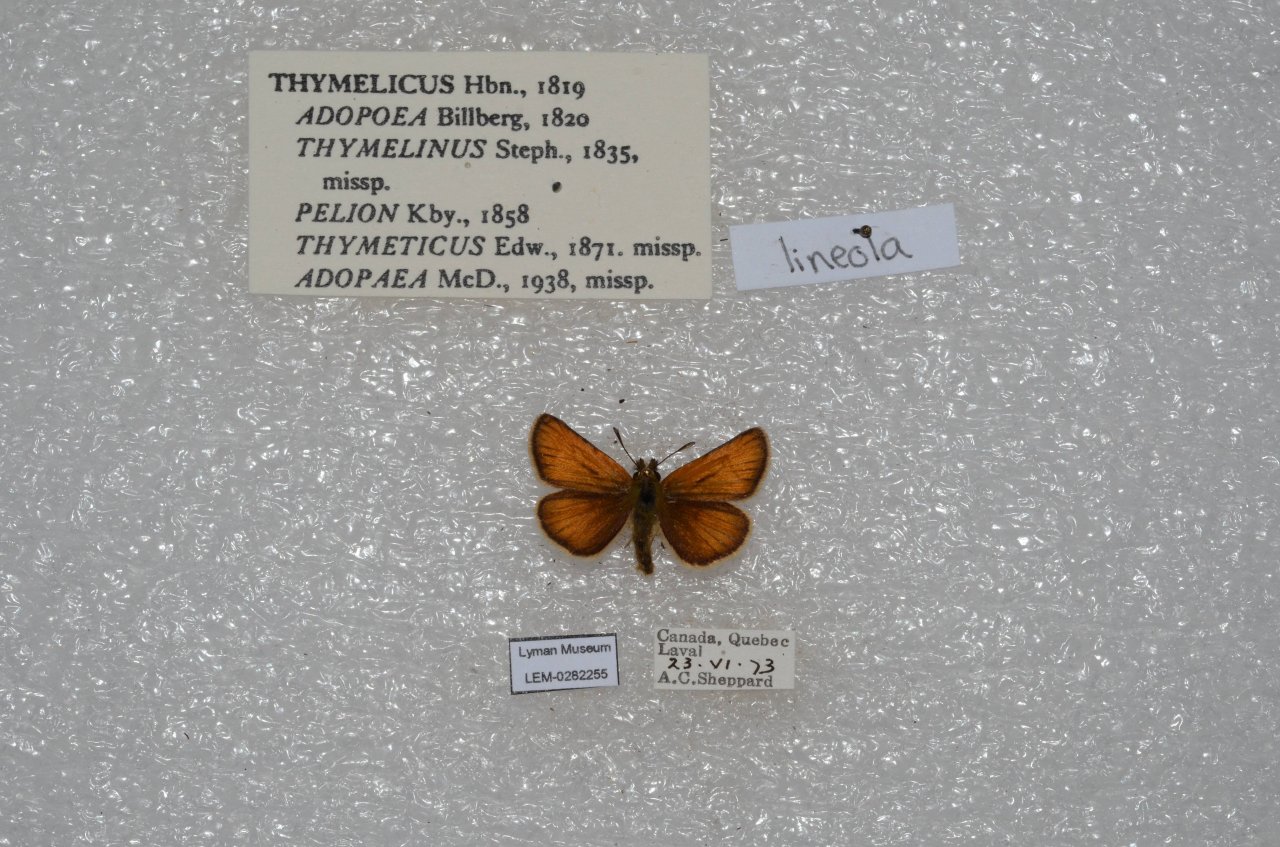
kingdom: Animalia
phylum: Arthropoda
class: Insecta
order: Lepidoptera
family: Hesperiidae
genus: Thymelicus
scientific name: Thymelicus lineola
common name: European Skipper
